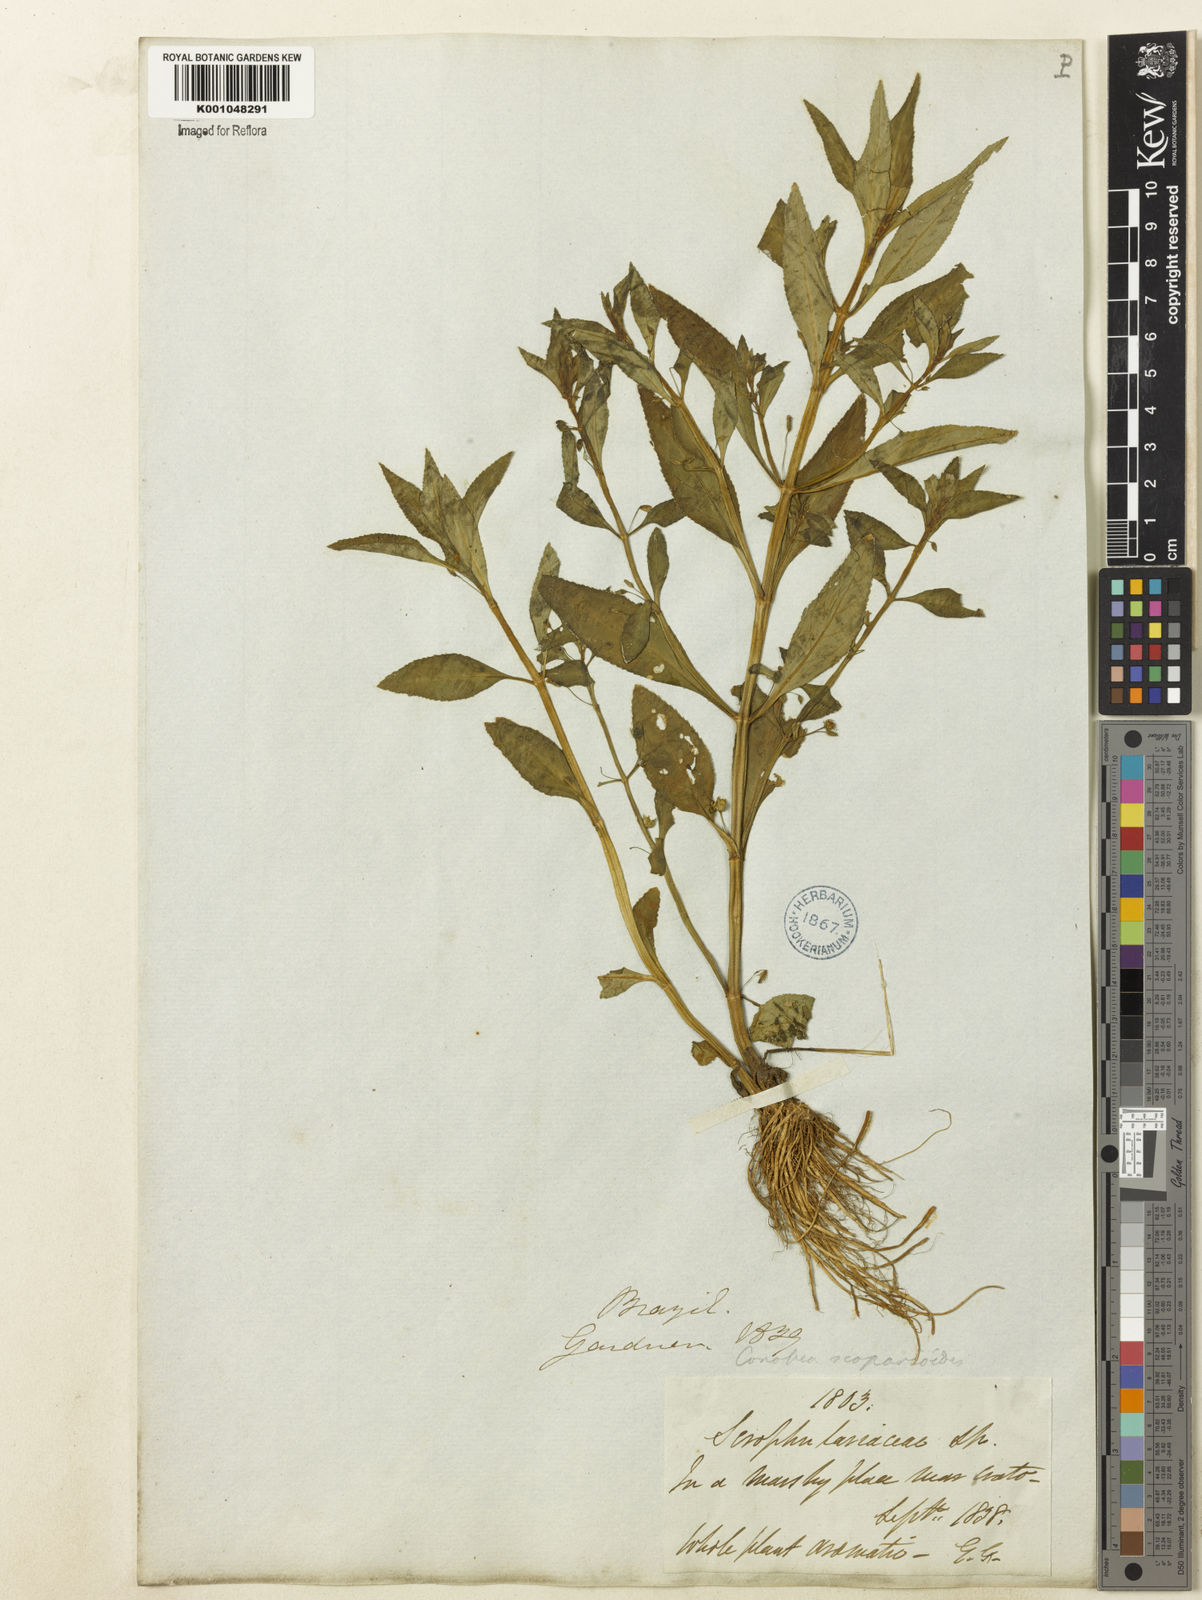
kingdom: Plantae
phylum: Tracheophyta
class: Magnoliopsida
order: Lamiales
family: Plantaginaceae
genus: Conobea
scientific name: Conobea scoparioides
